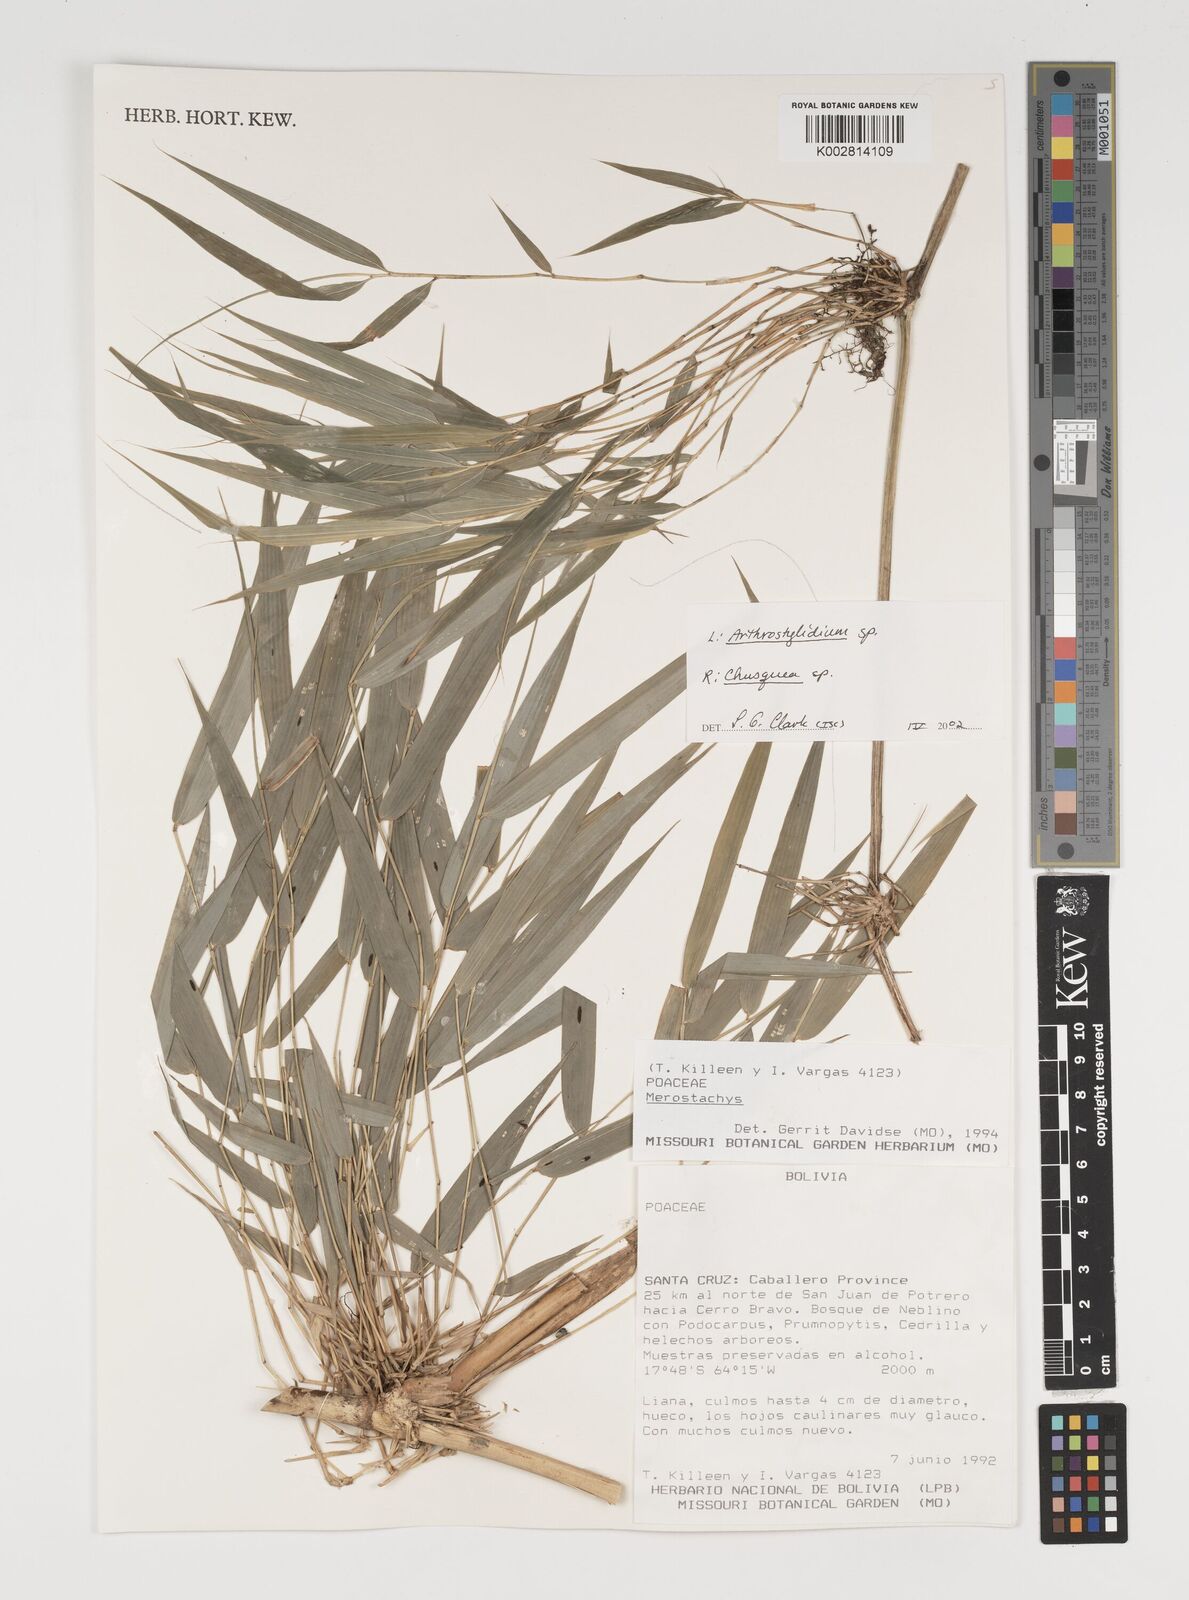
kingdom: Plantae
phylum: Tracheophyta
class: Liliopsida
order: Poales
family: Poaceae
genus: Chusquea
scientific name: Chusquea
